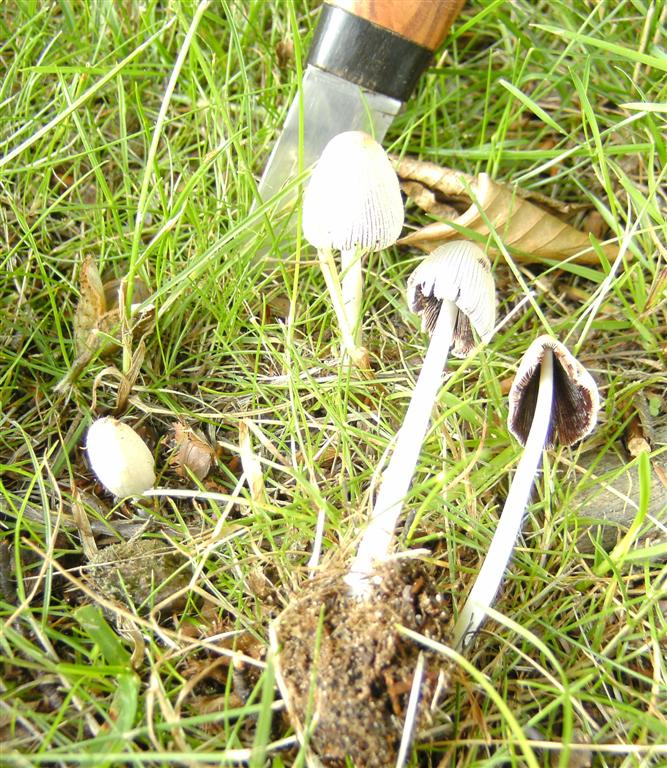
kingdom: Fungi
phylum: Basidiomycota
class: Agaricomycetes
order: Agaricales
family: Psathyrellaceae
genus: Coprinellus
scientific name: Coprinellus domesticus
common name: hus-blækhat
